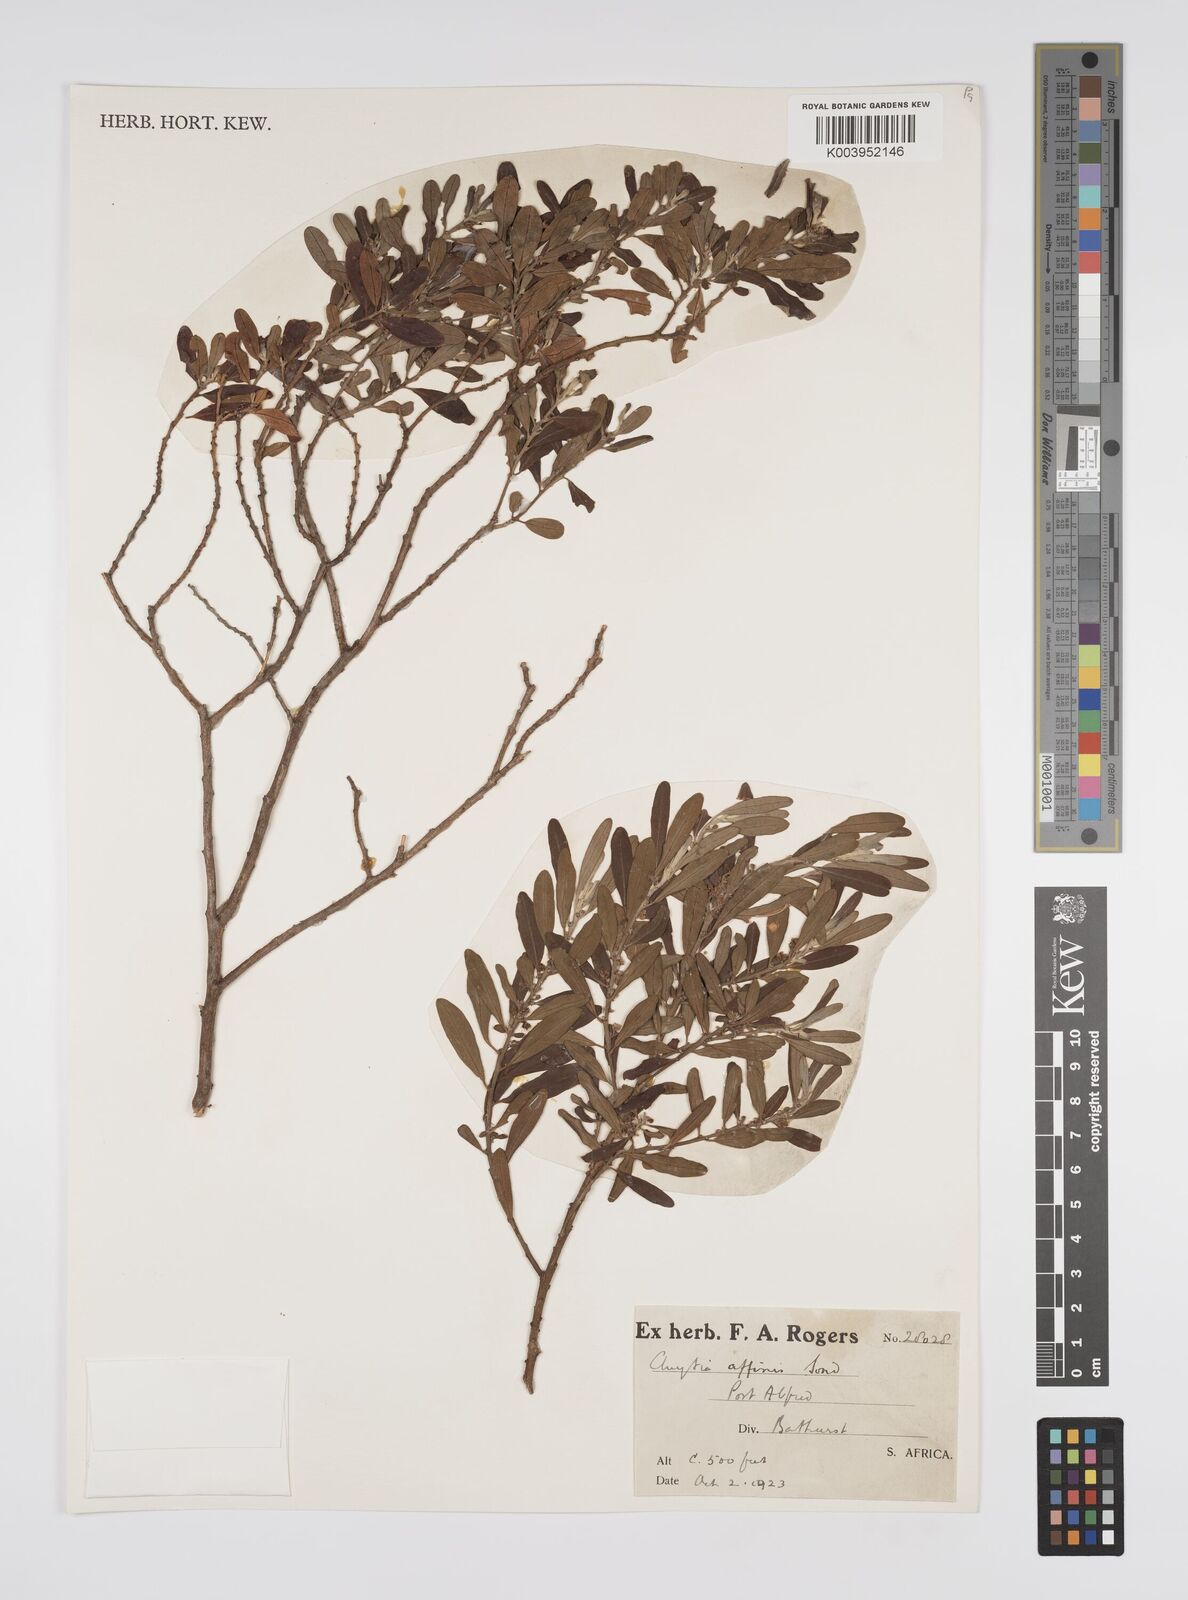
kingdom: Plantae
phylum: Tracheophyta
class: Magnoliopsida
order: Malpighiales
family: Peraceae
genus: Clutia
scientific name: Clutia affinis
